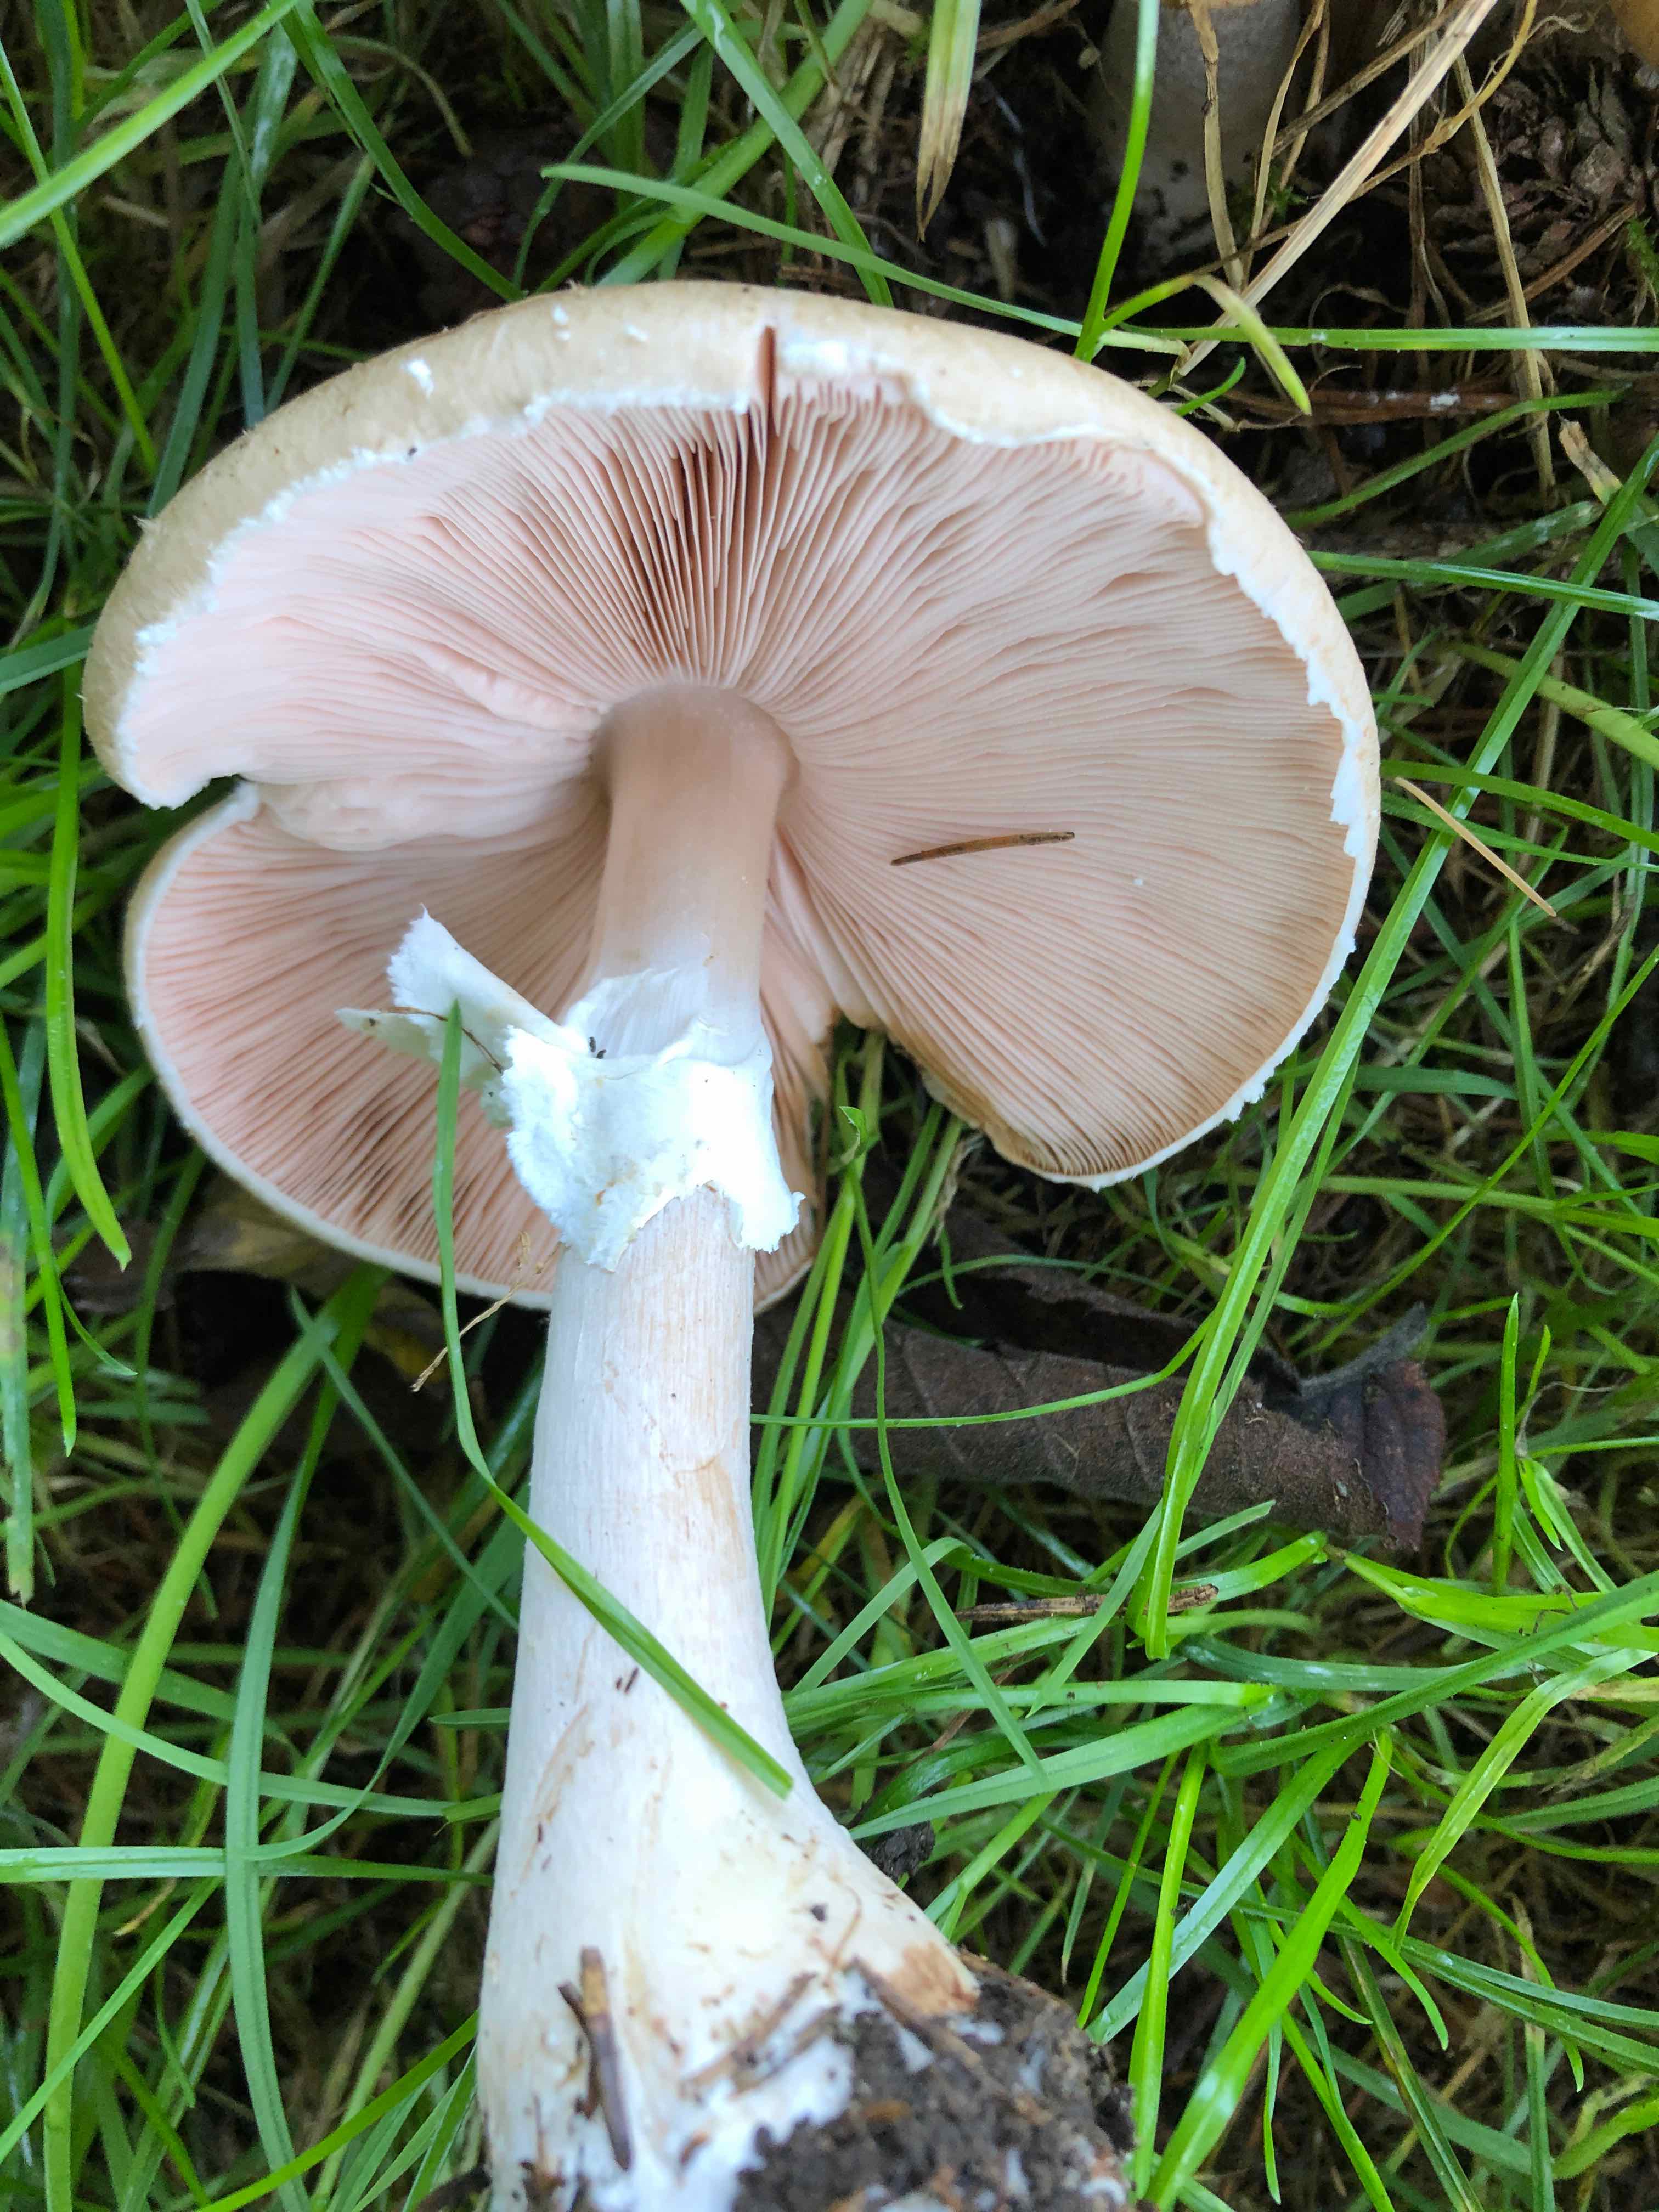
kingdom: Fungi
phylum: Basidiomycota
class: Agaricomycetes
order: Agaricales
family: Agaricaceae
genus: Agaricus
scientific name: Agaricus impudicus
